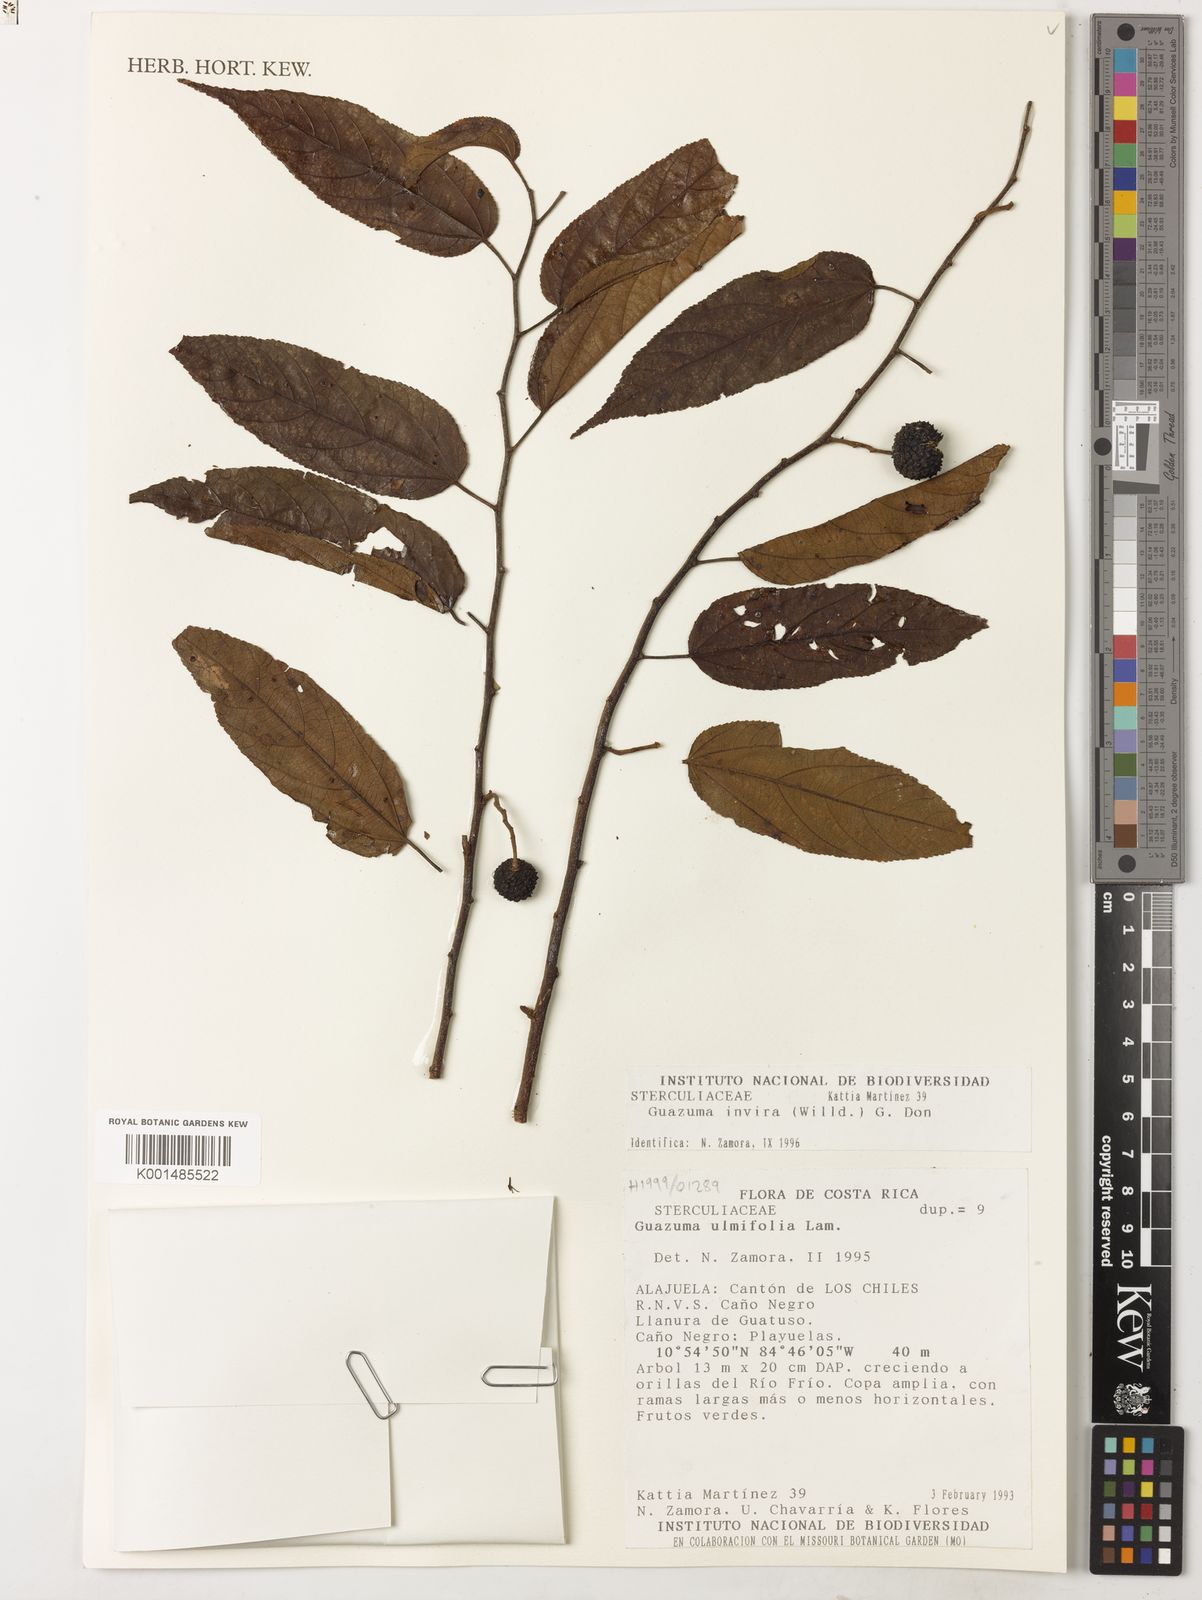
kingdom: Plantae
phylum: Tracheophyta
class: Magnoliopsida
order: Malvales
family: Malvaceae
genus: Guazuma
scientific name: Guazuma invira
